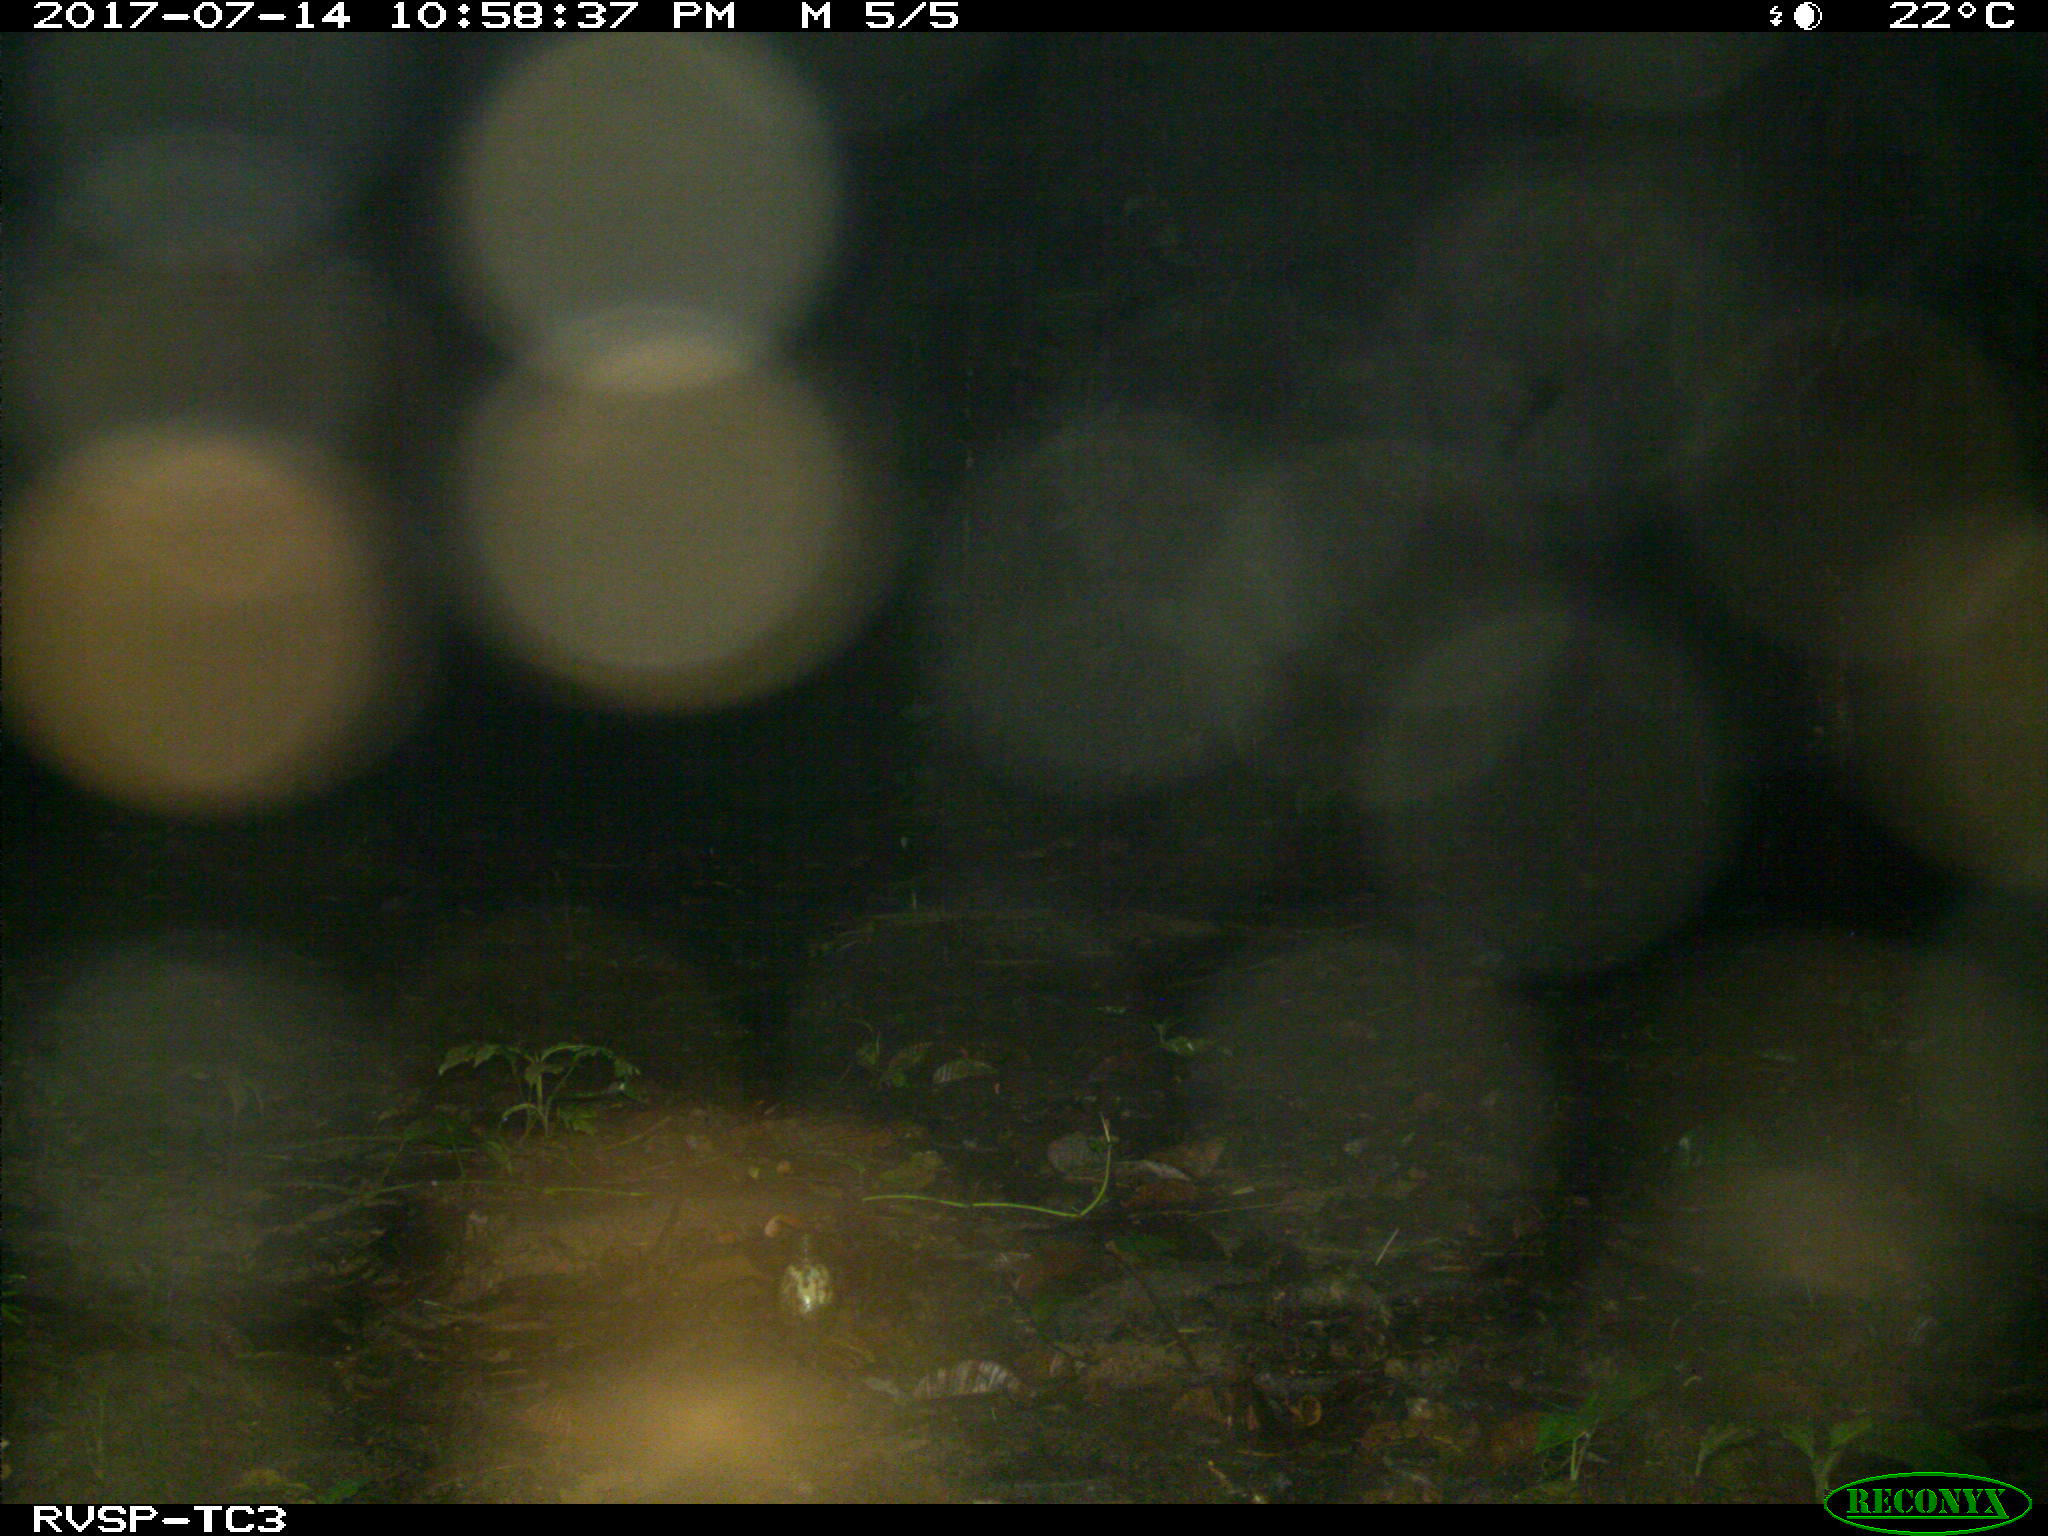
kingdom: Animalia
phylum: Chordata
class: Mammalia
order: Rodentia
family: Cuniculidae
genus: Cuniculus
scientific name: Cuniculus paca
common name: Lowland paca
